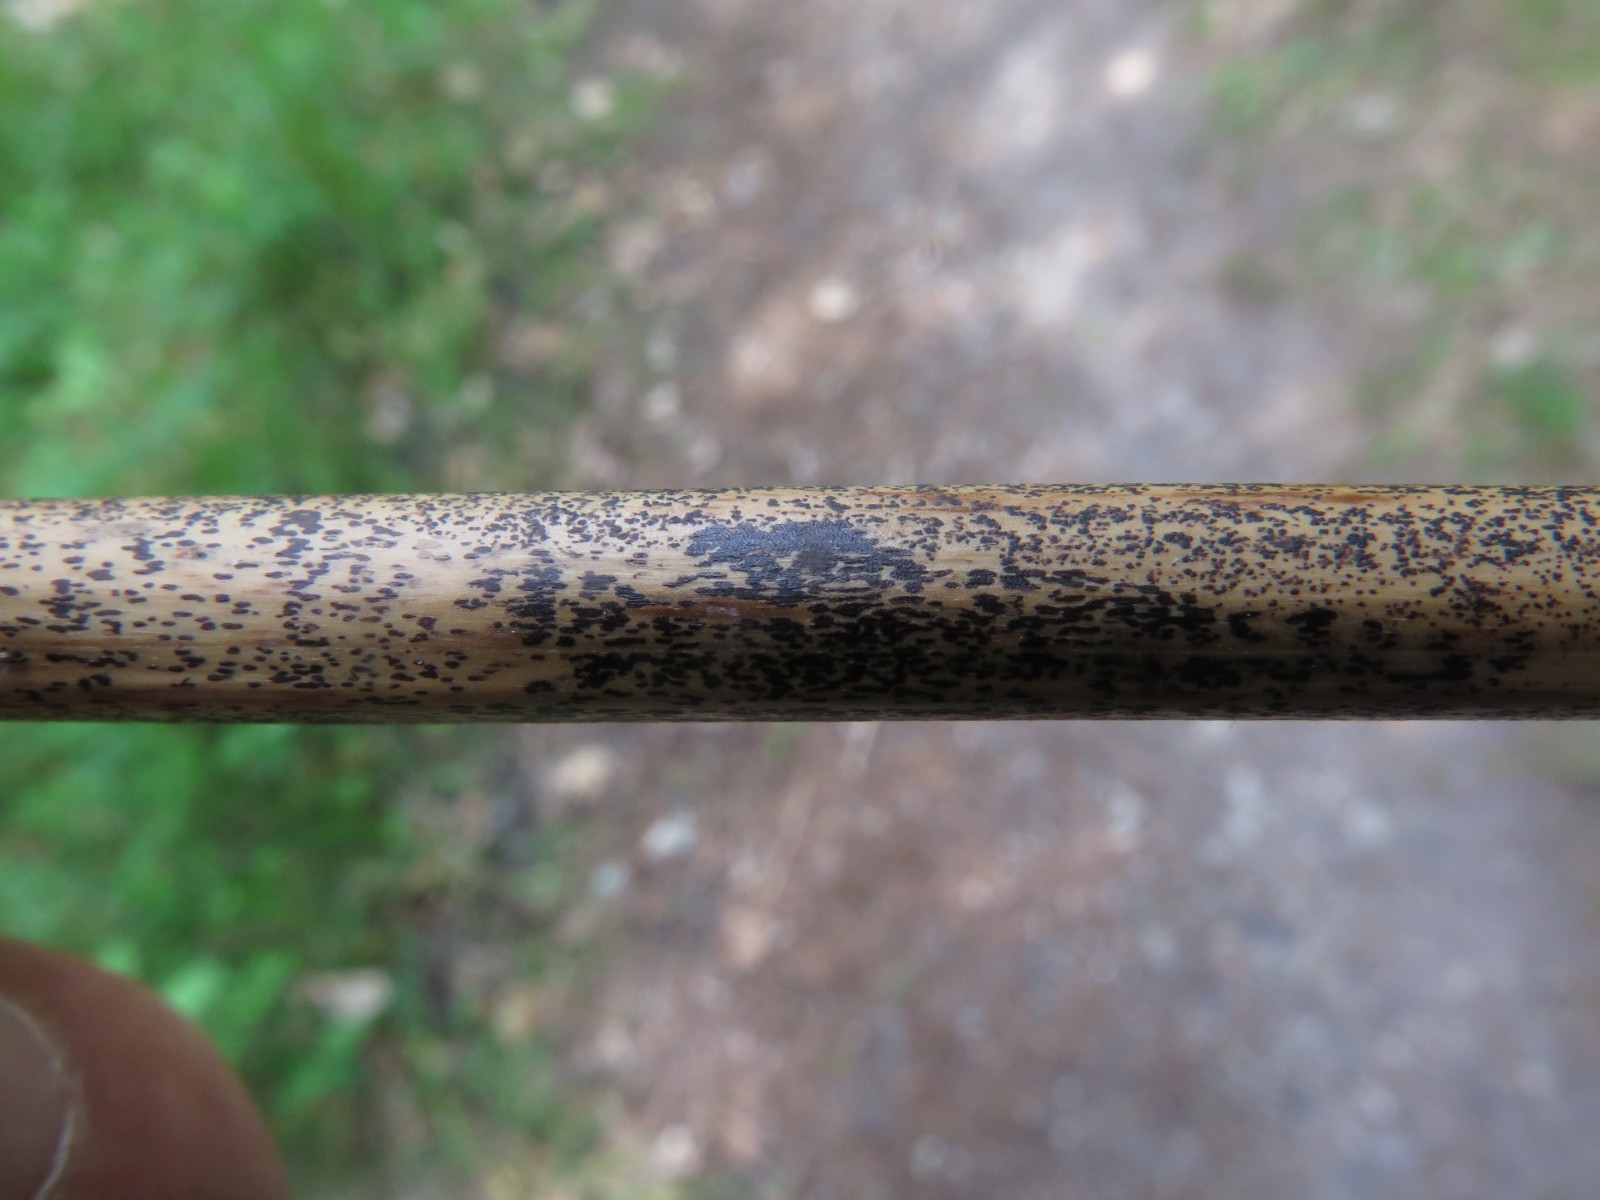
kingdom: Fungi
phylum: Ascomycota
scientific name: Ascomycota
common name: sæksvampe
